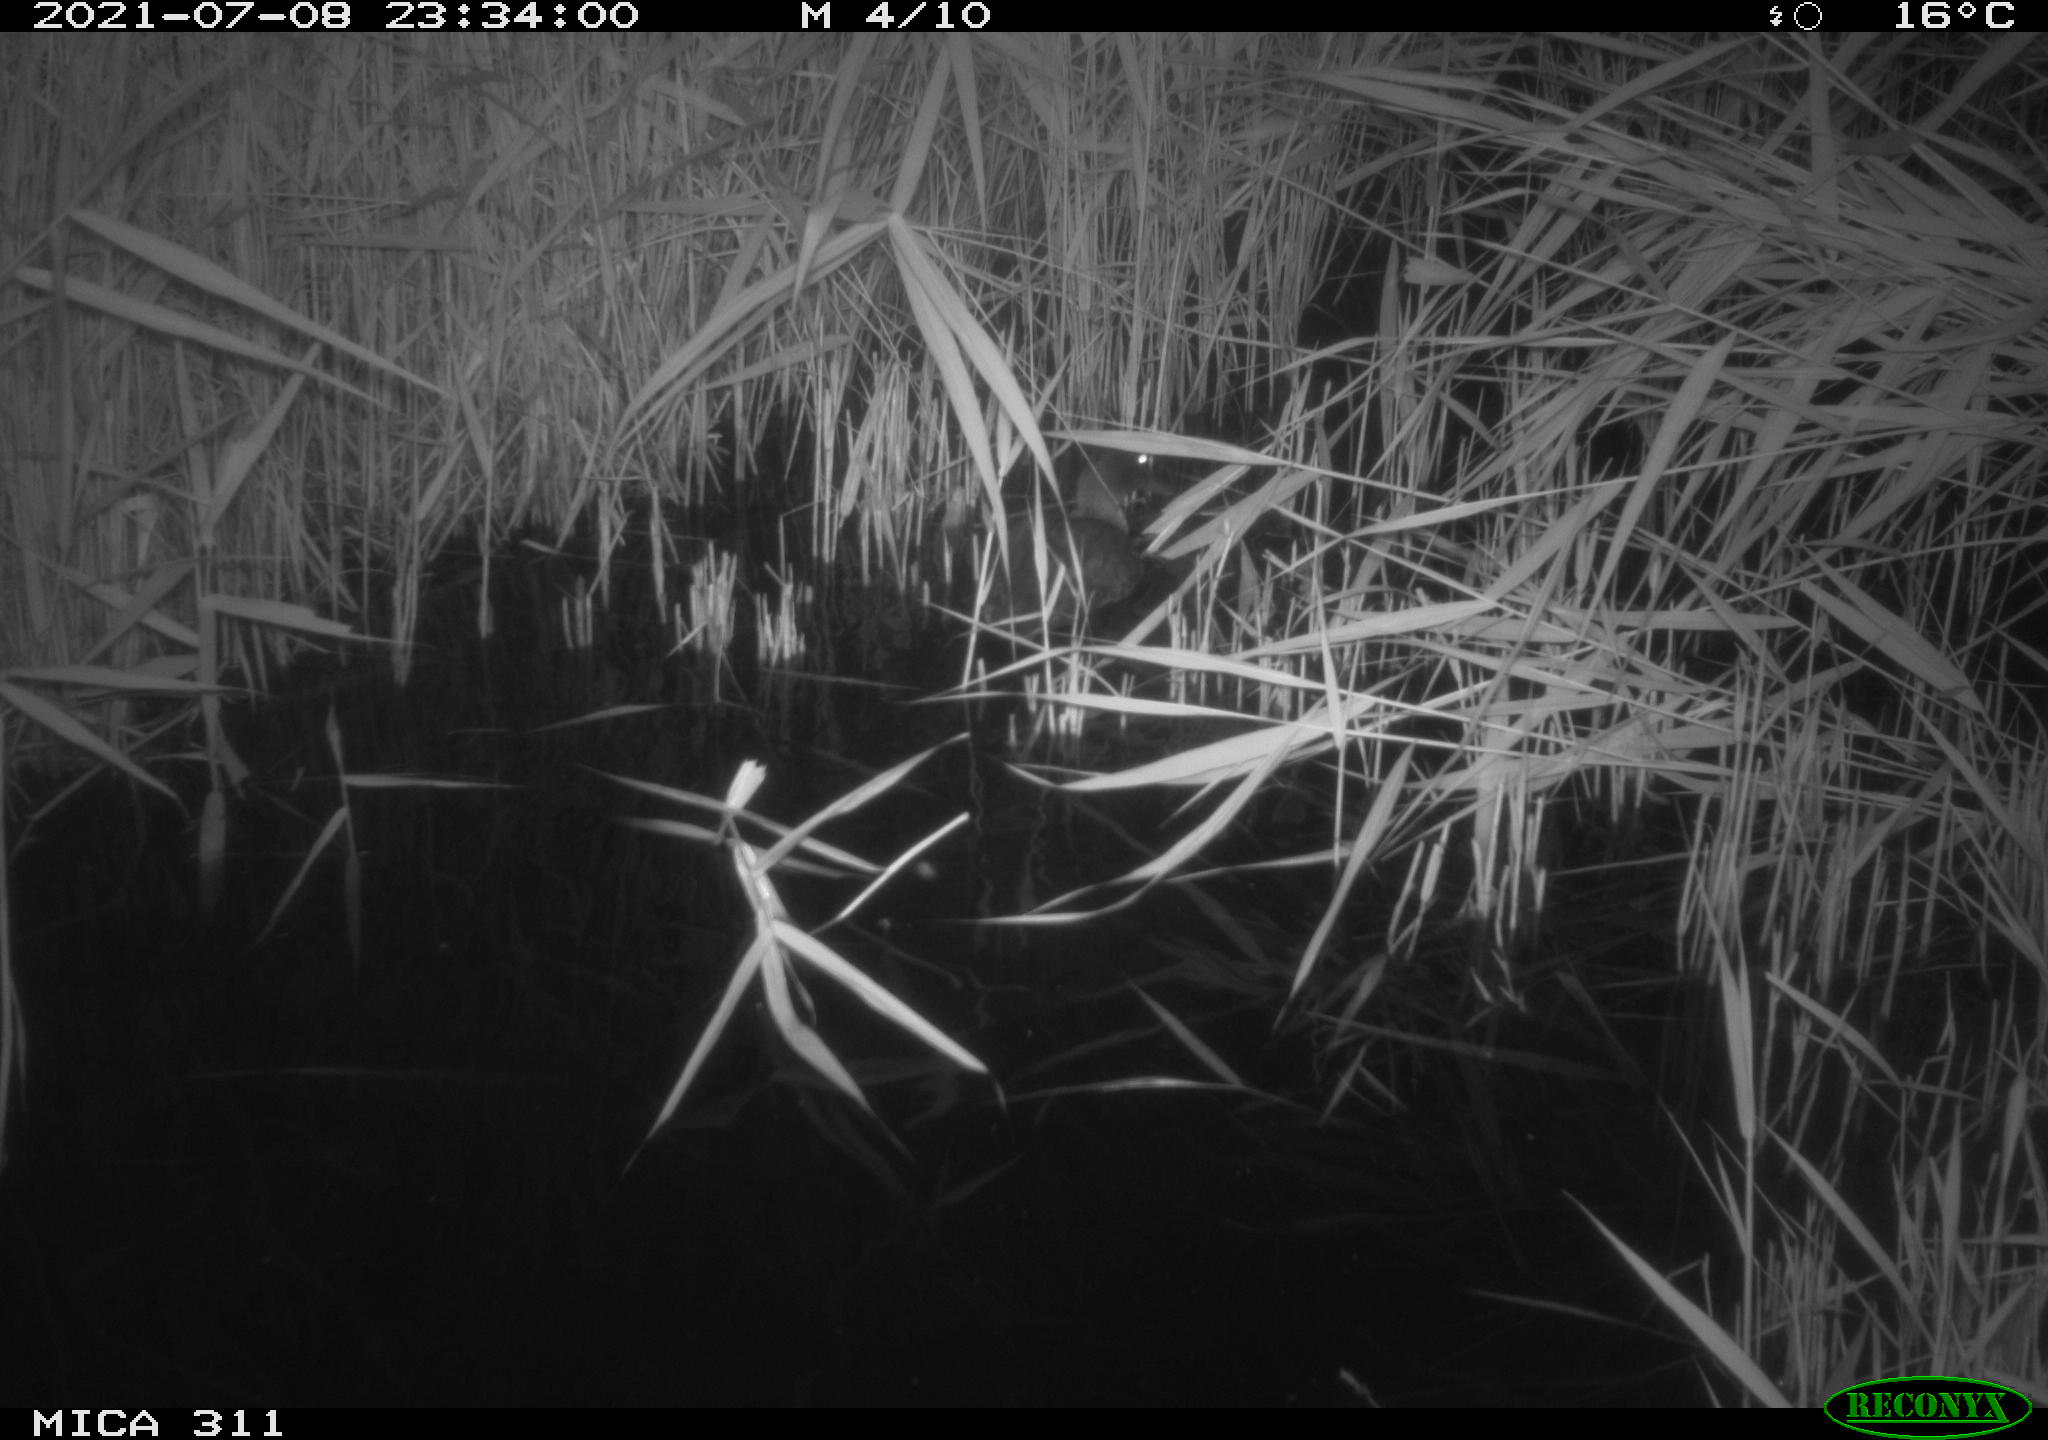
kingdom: Animalia
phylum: Chordata
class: Aves
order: Anseriformes
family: Anatidae
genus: Anas
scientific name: Anas platyrhynchos
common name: Mallard
